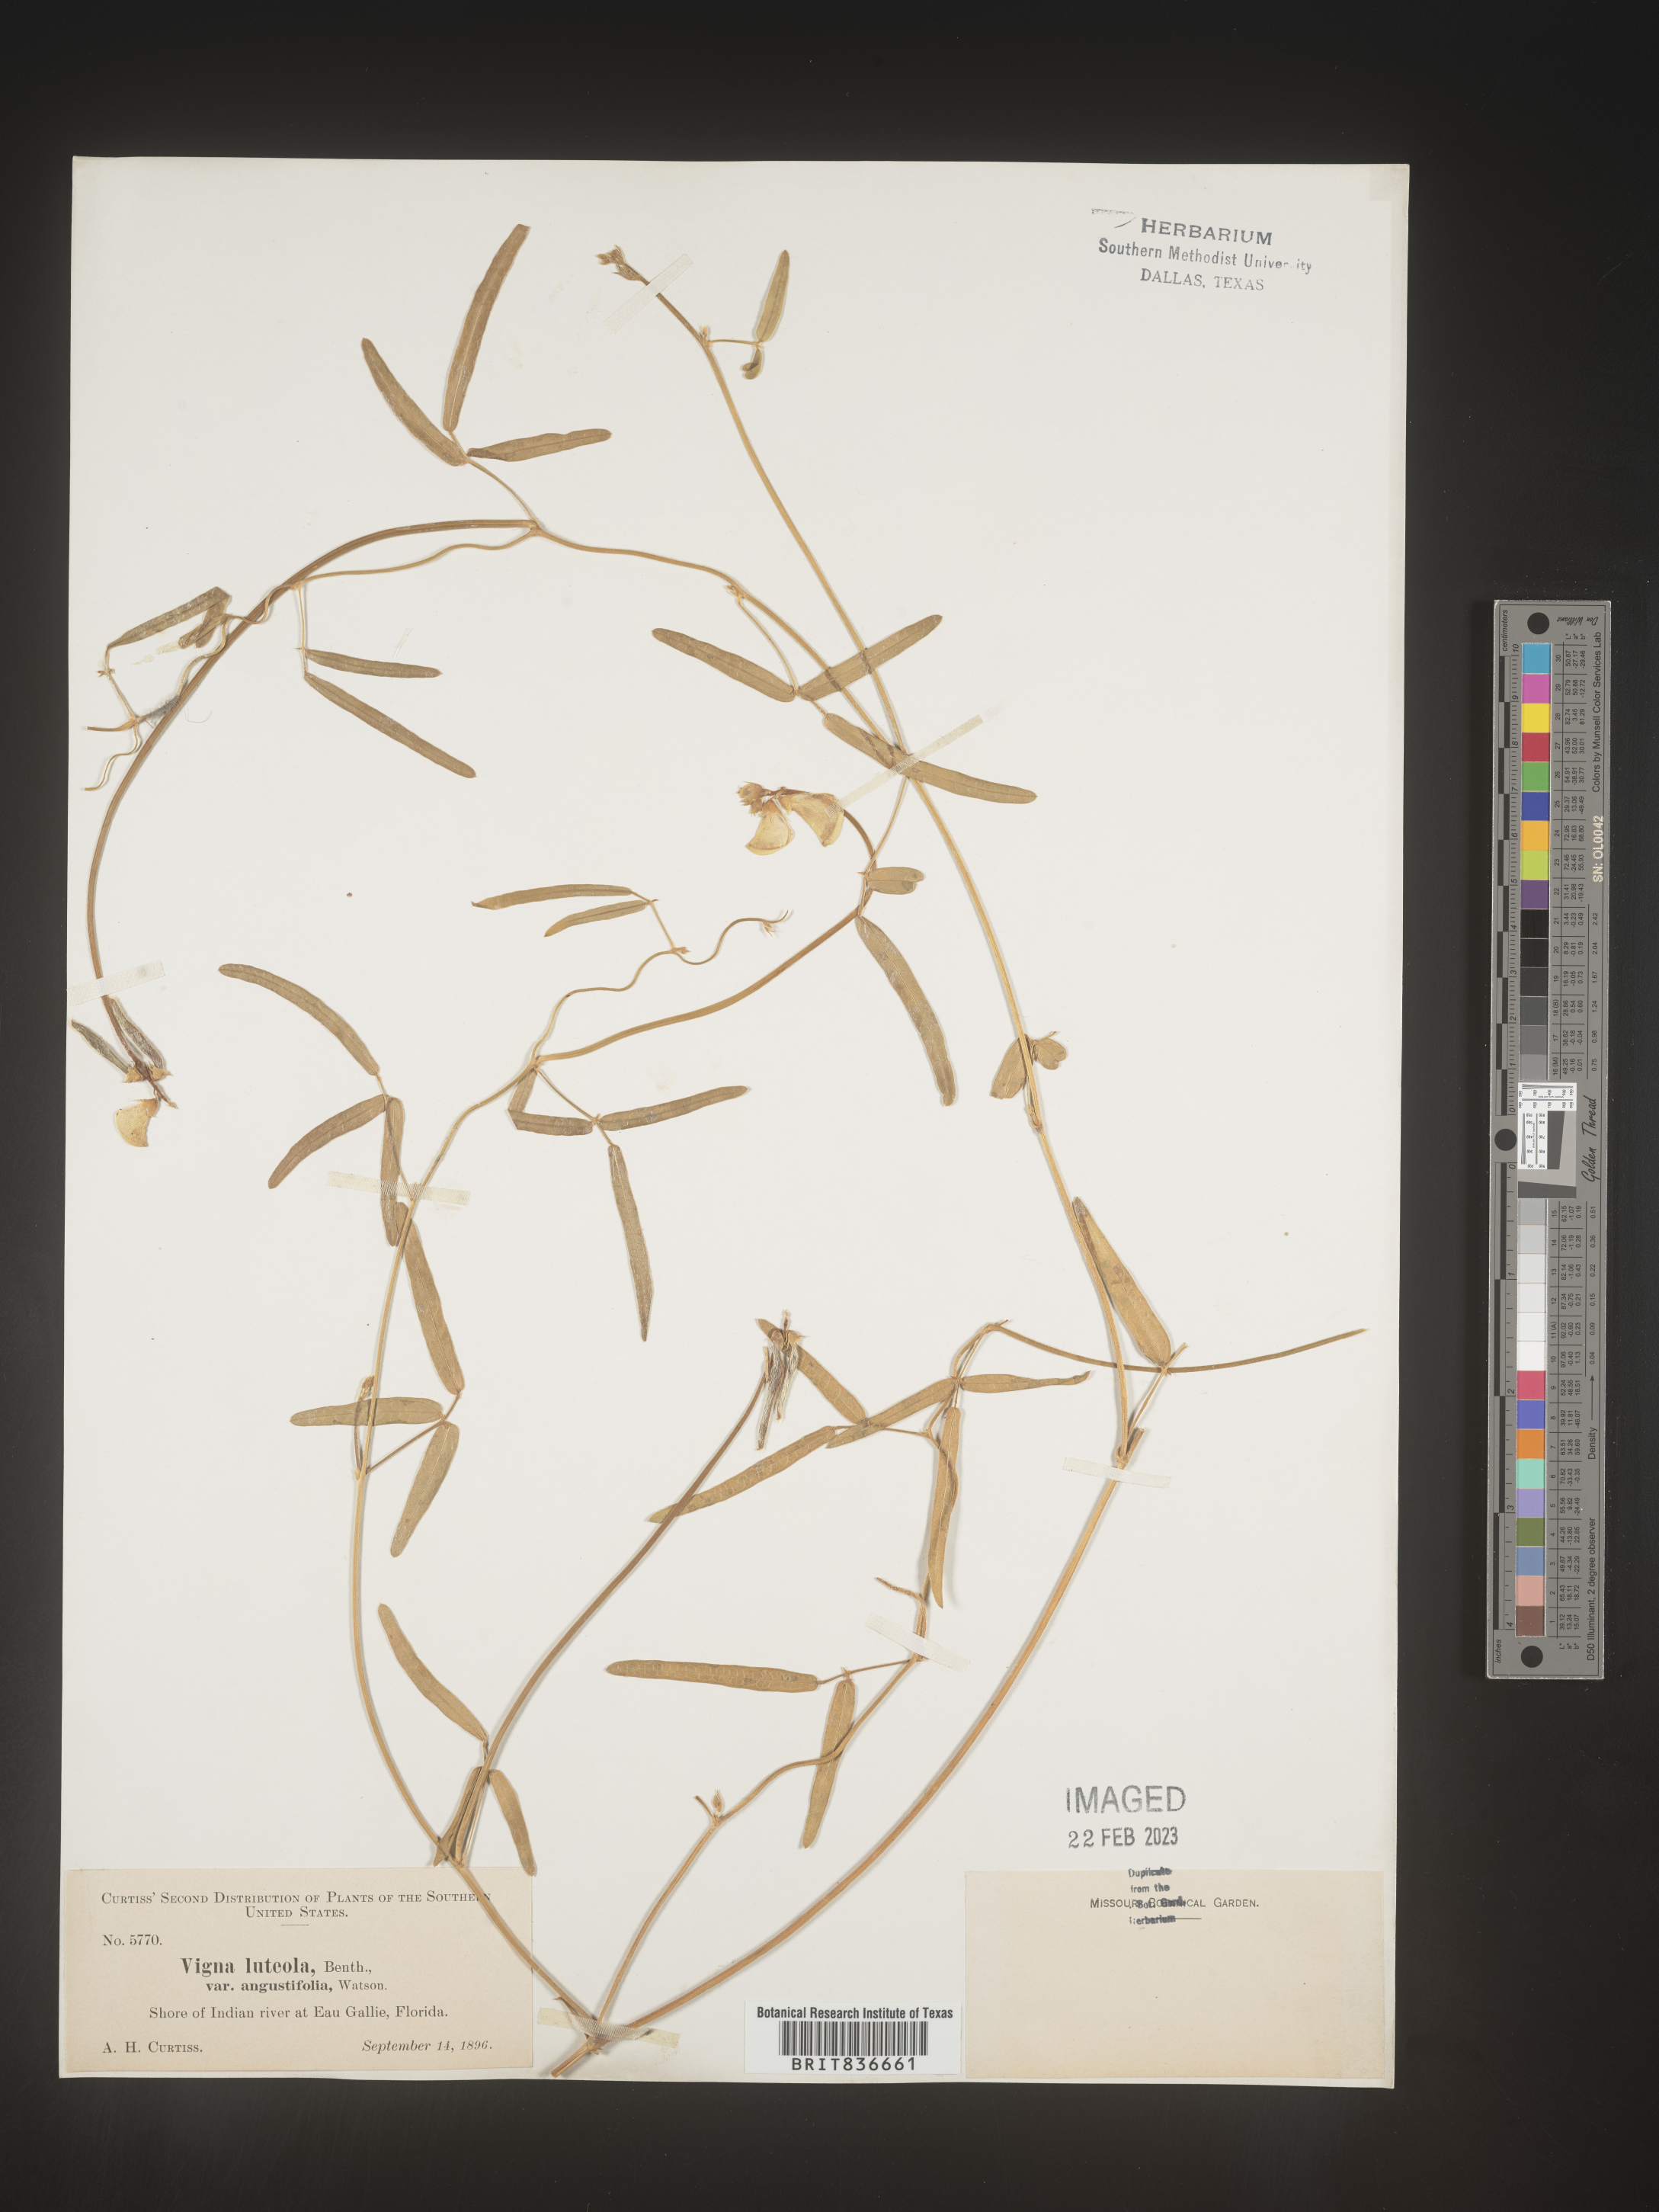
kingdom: Plantae
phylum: Tracheophyta
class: Magnoliopsida
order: Fabales
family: Fabaceae
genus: Vigna
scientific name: Vigna luteola
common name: Hairypod cowpea
